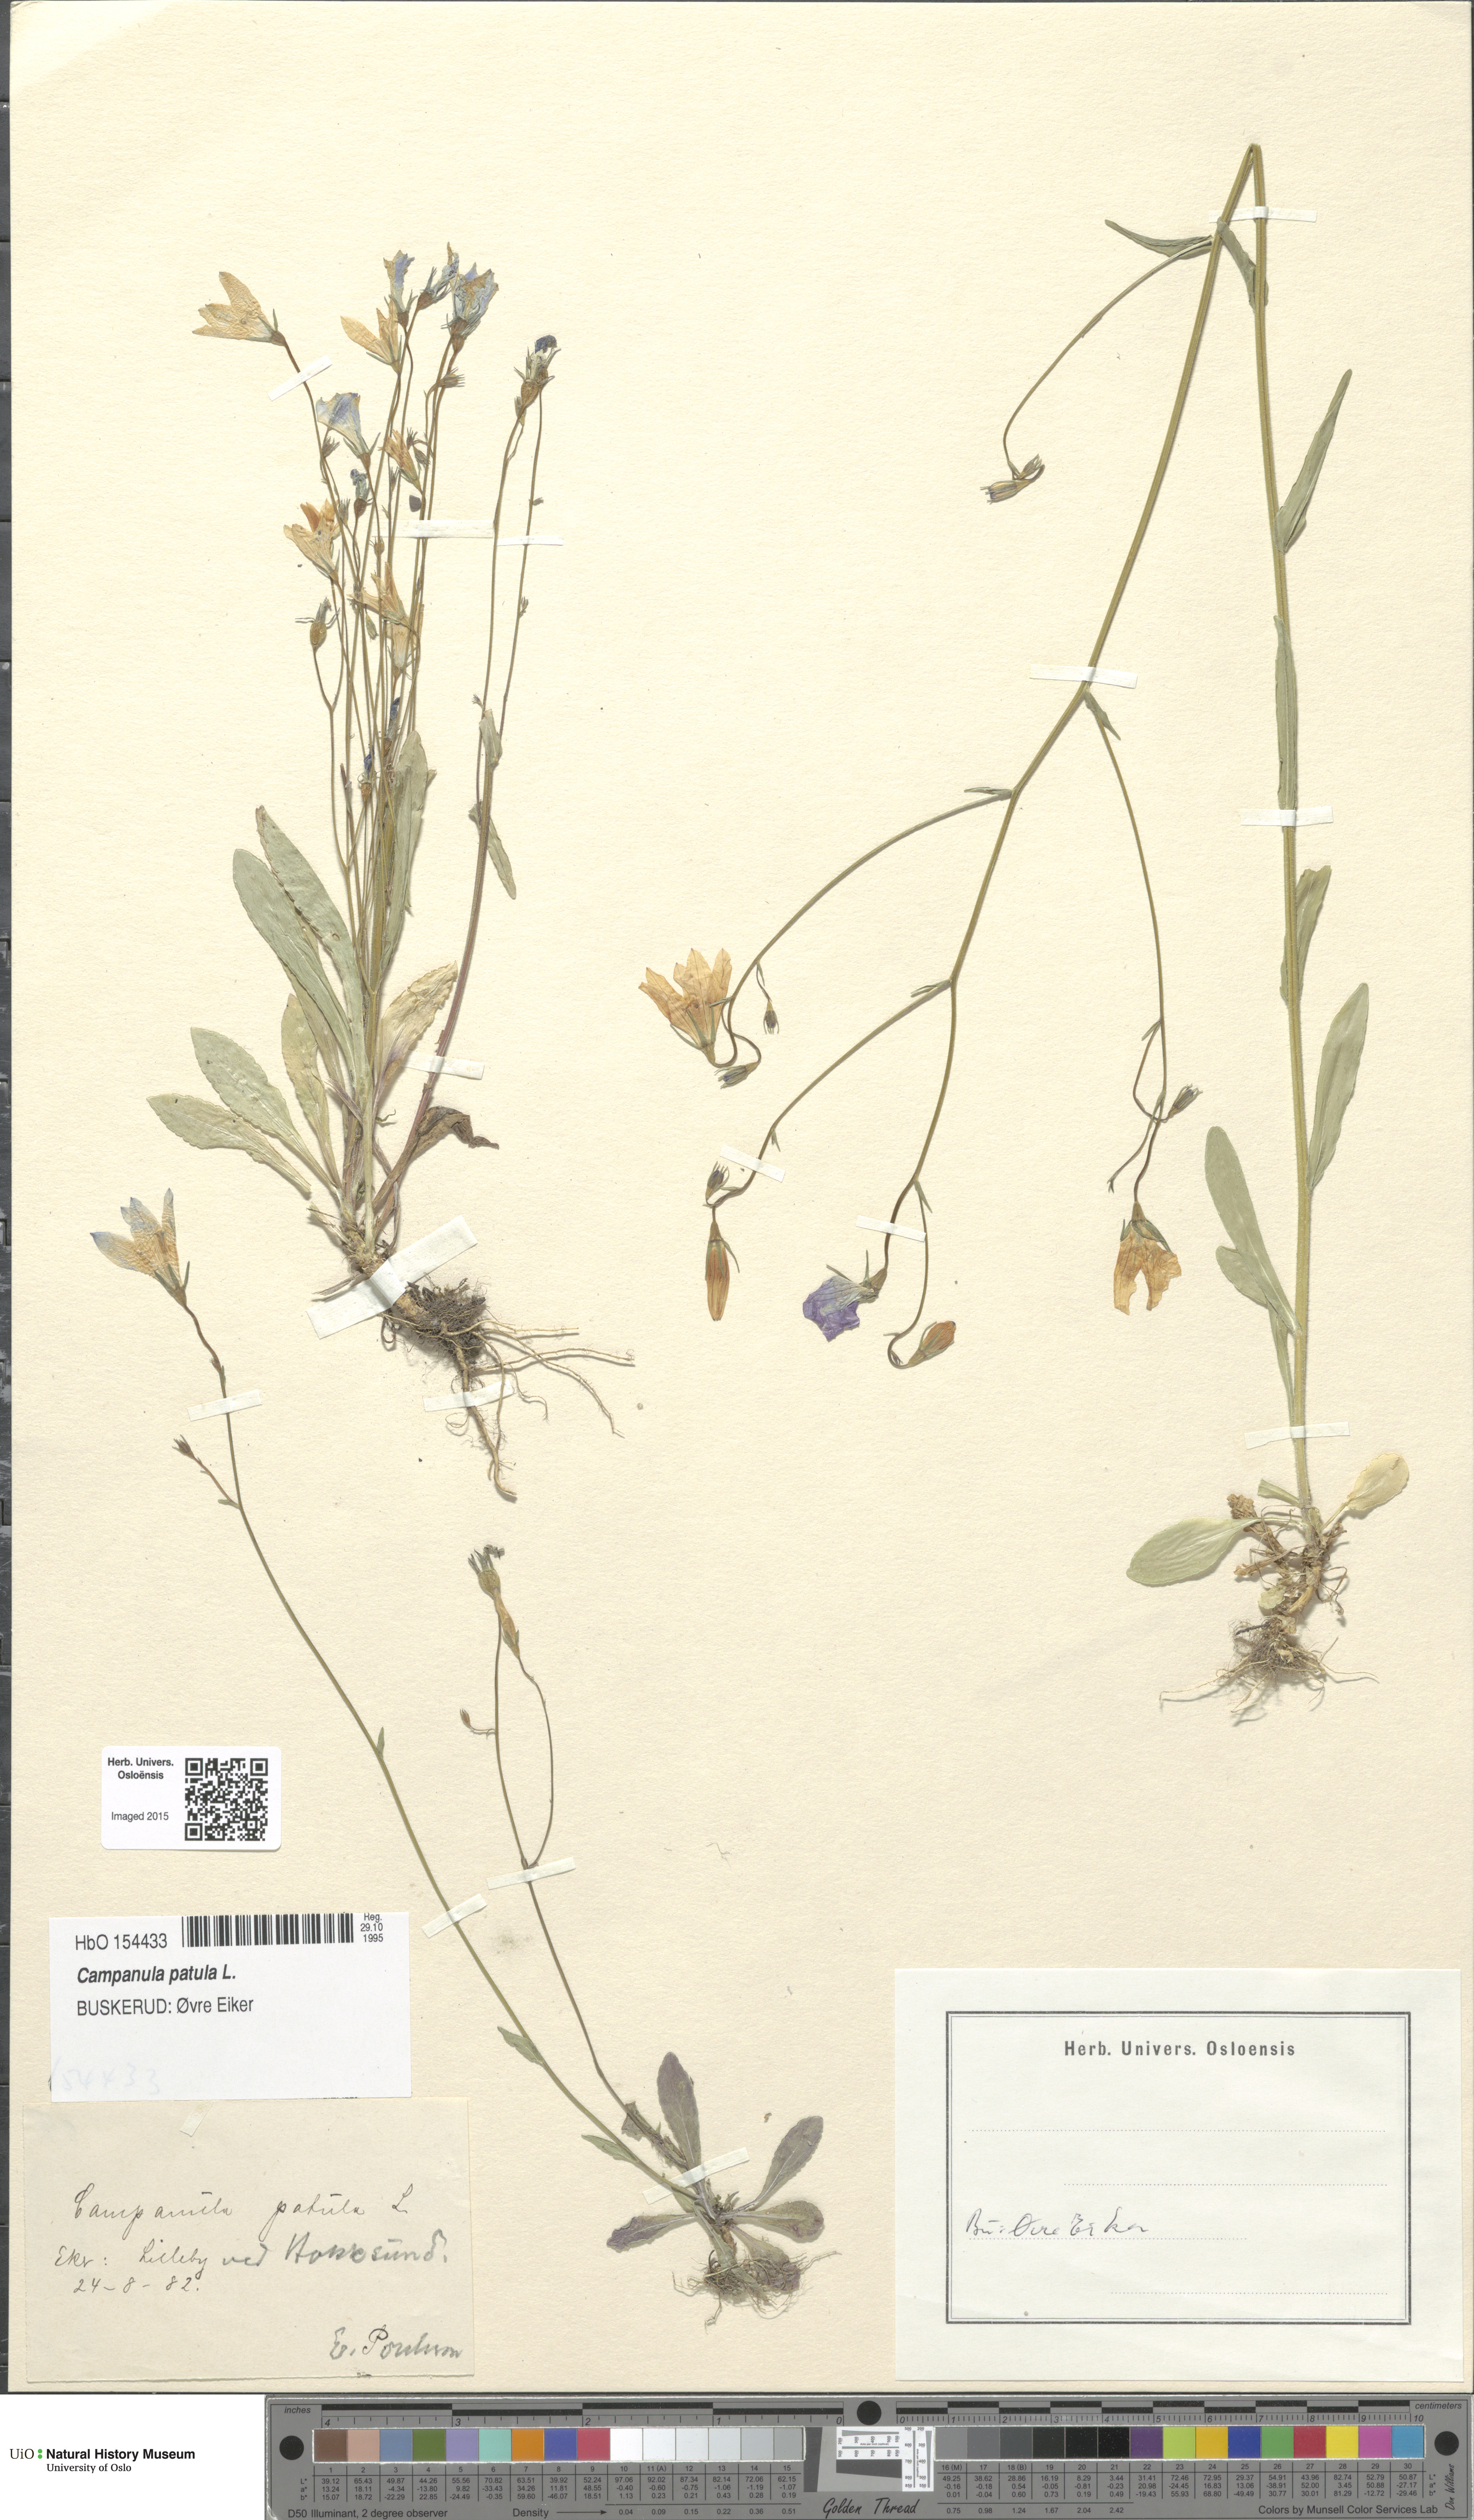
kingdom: Plantae
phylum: Tracheophyta
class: Magnoliopsida
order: Asterales
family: Campanulaceae
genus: Campanula
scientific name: Campanula patula
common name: Spreading bellflower
